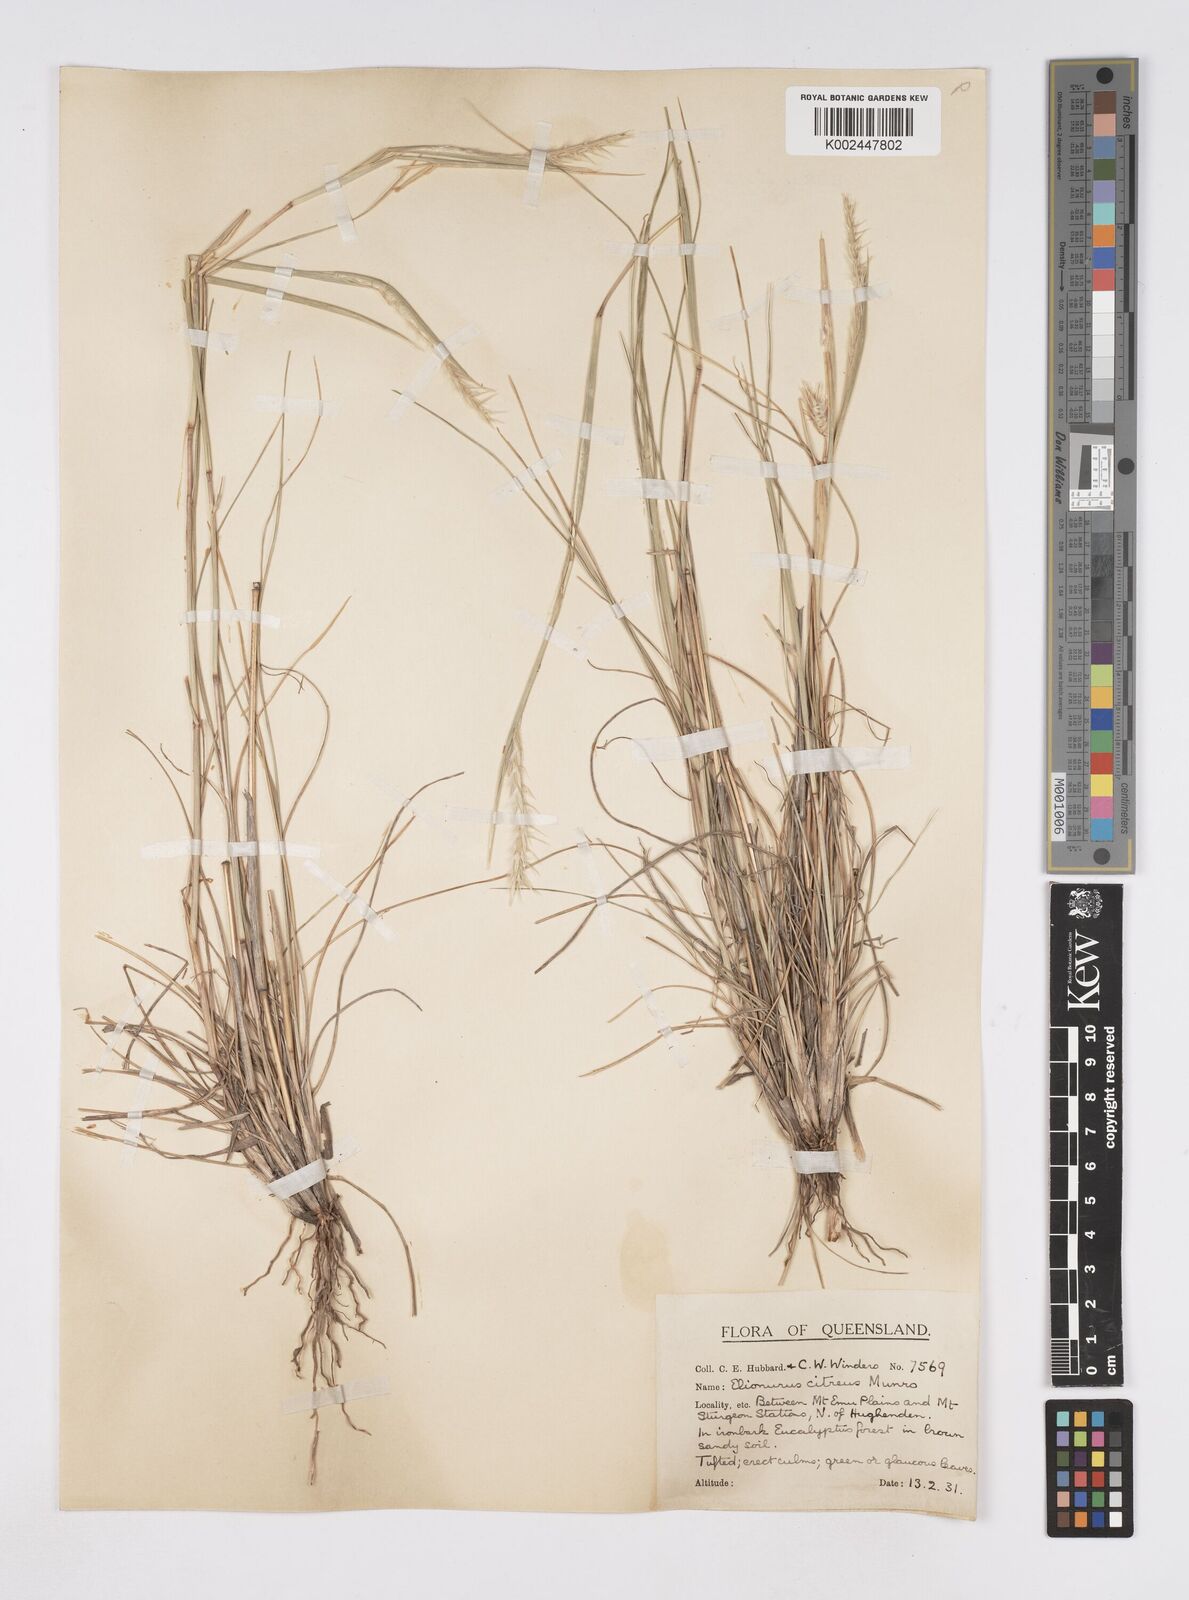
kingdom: Plantae
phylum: Tracheophyta
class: Liliopsida
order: Poales
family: Poaceae
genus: Elionurus
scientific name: Elionurus citreus
